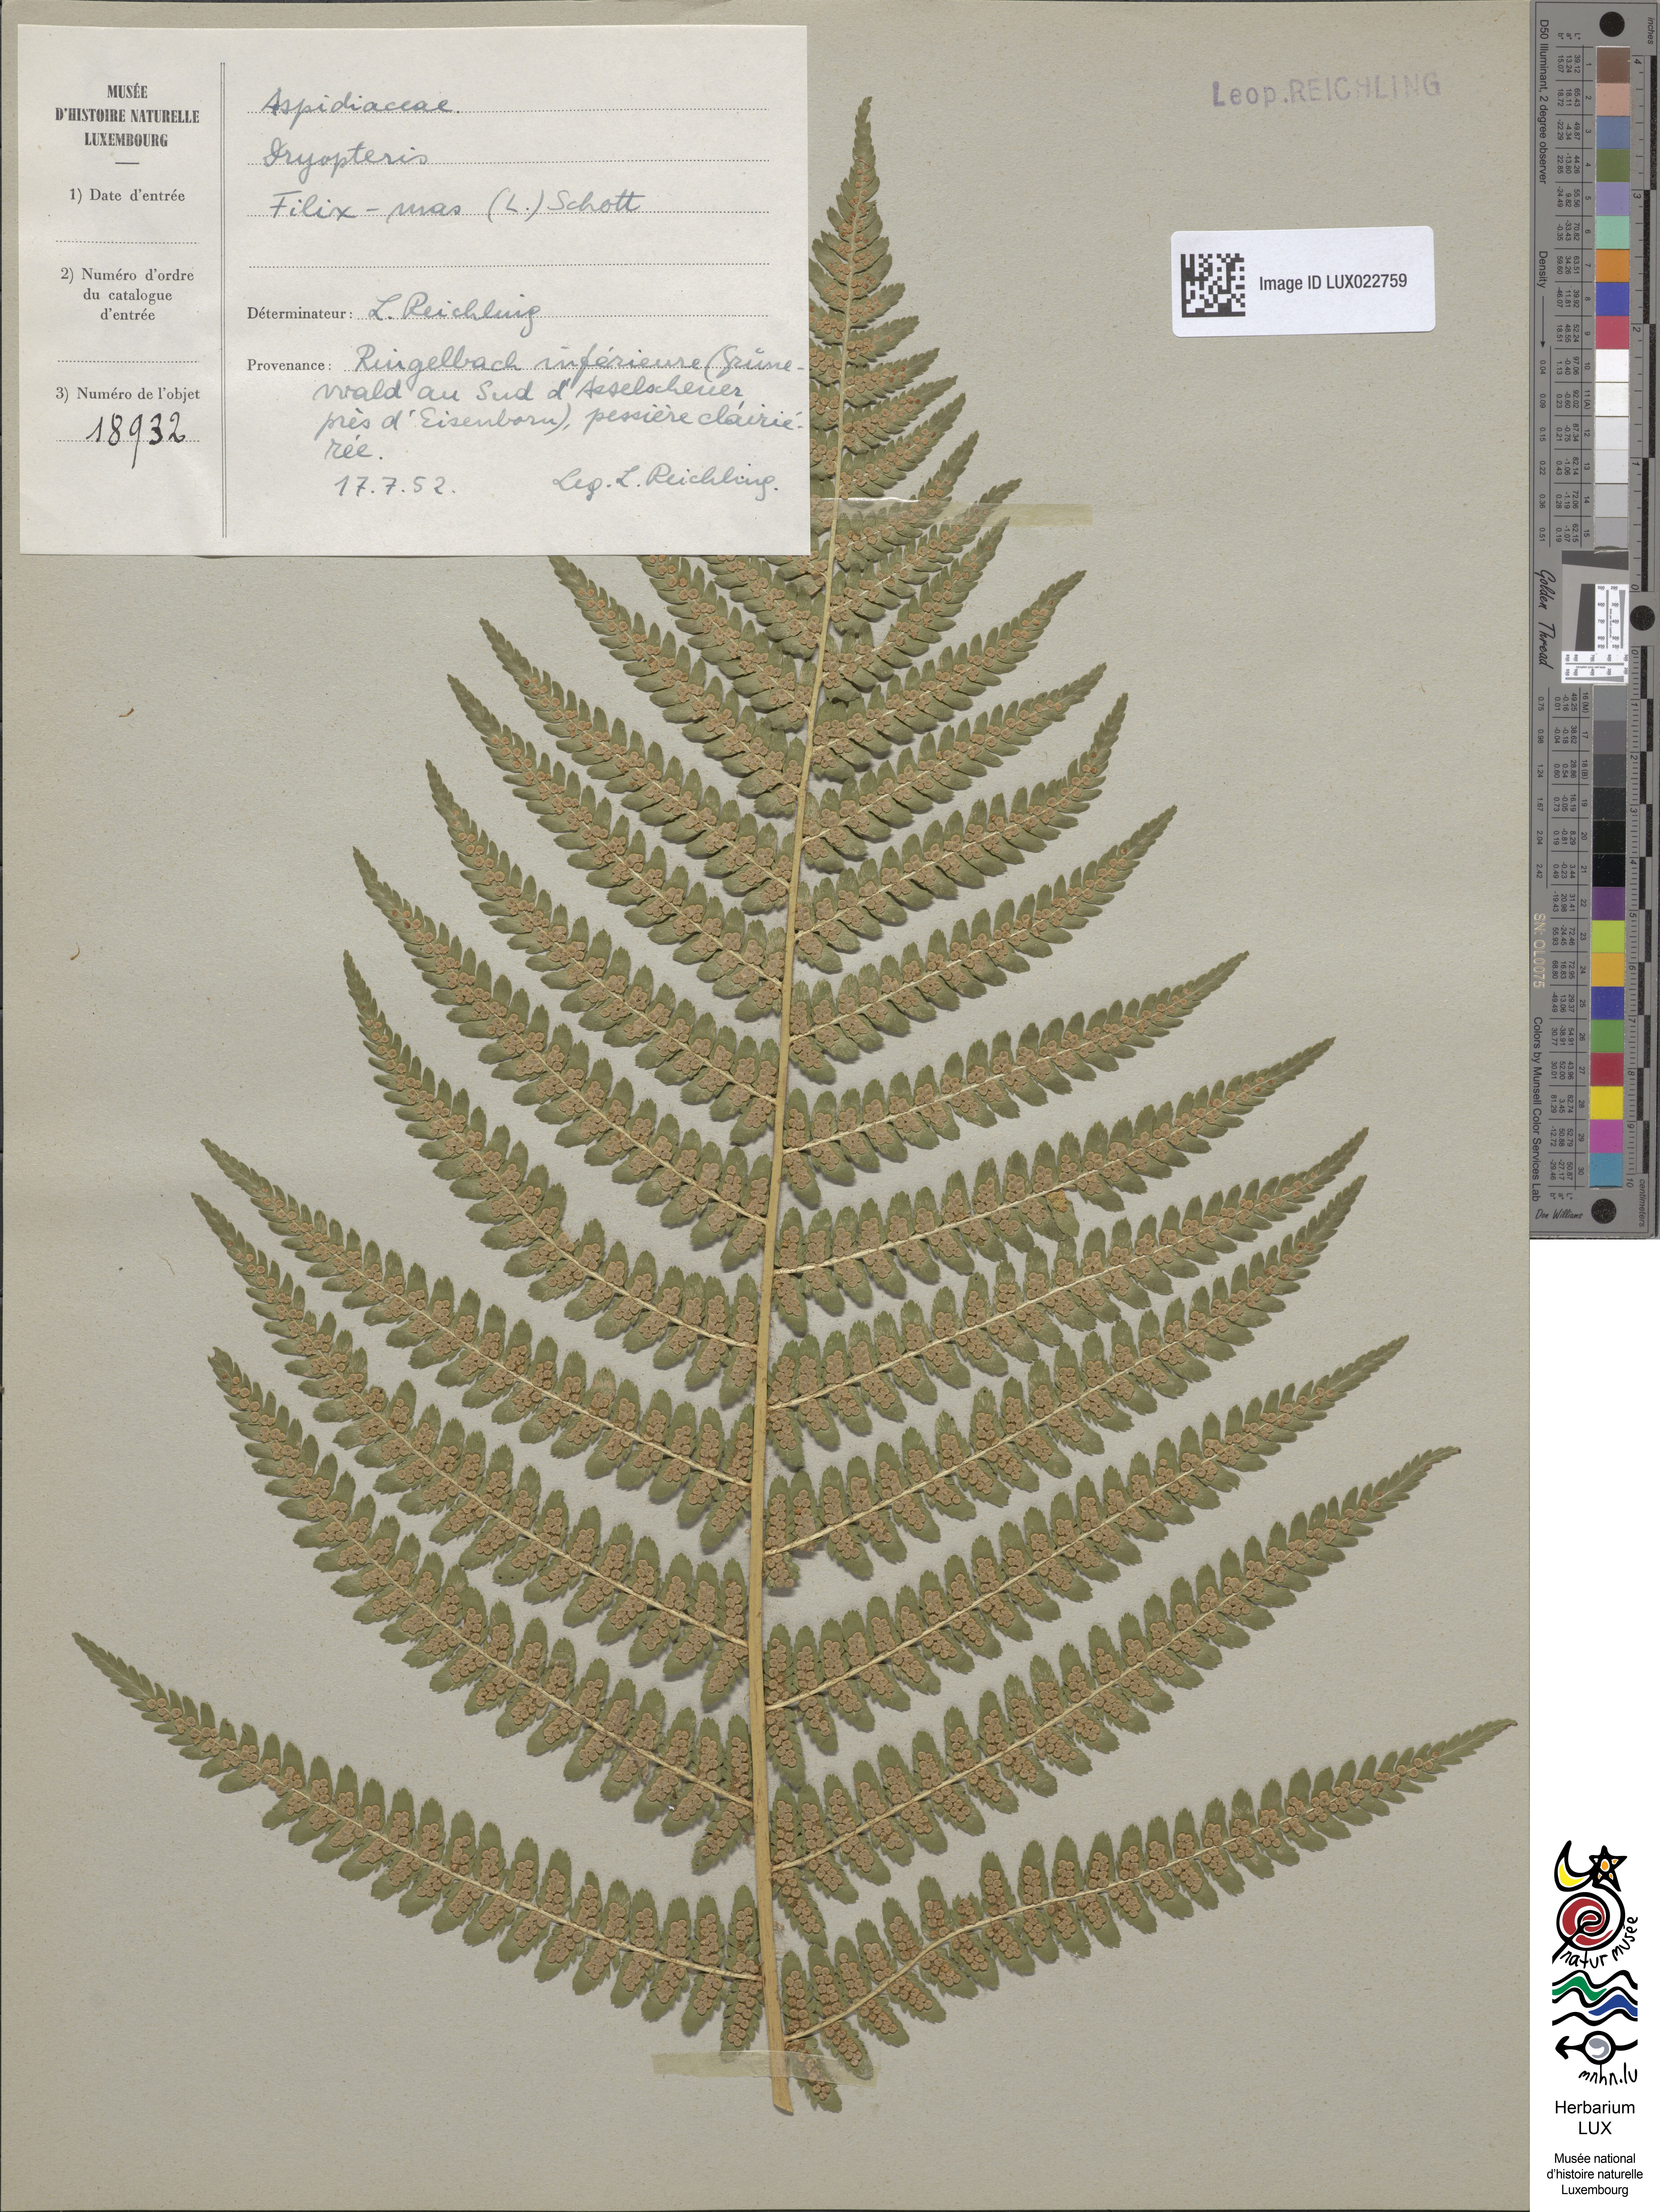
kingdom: Plantae
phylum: Tracheophyta
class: Polypodiopsida
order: Polypodiales
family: Dryopteridaceae
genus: Dryopteris
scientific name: Dryopteris filix-mas
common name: Male fern
